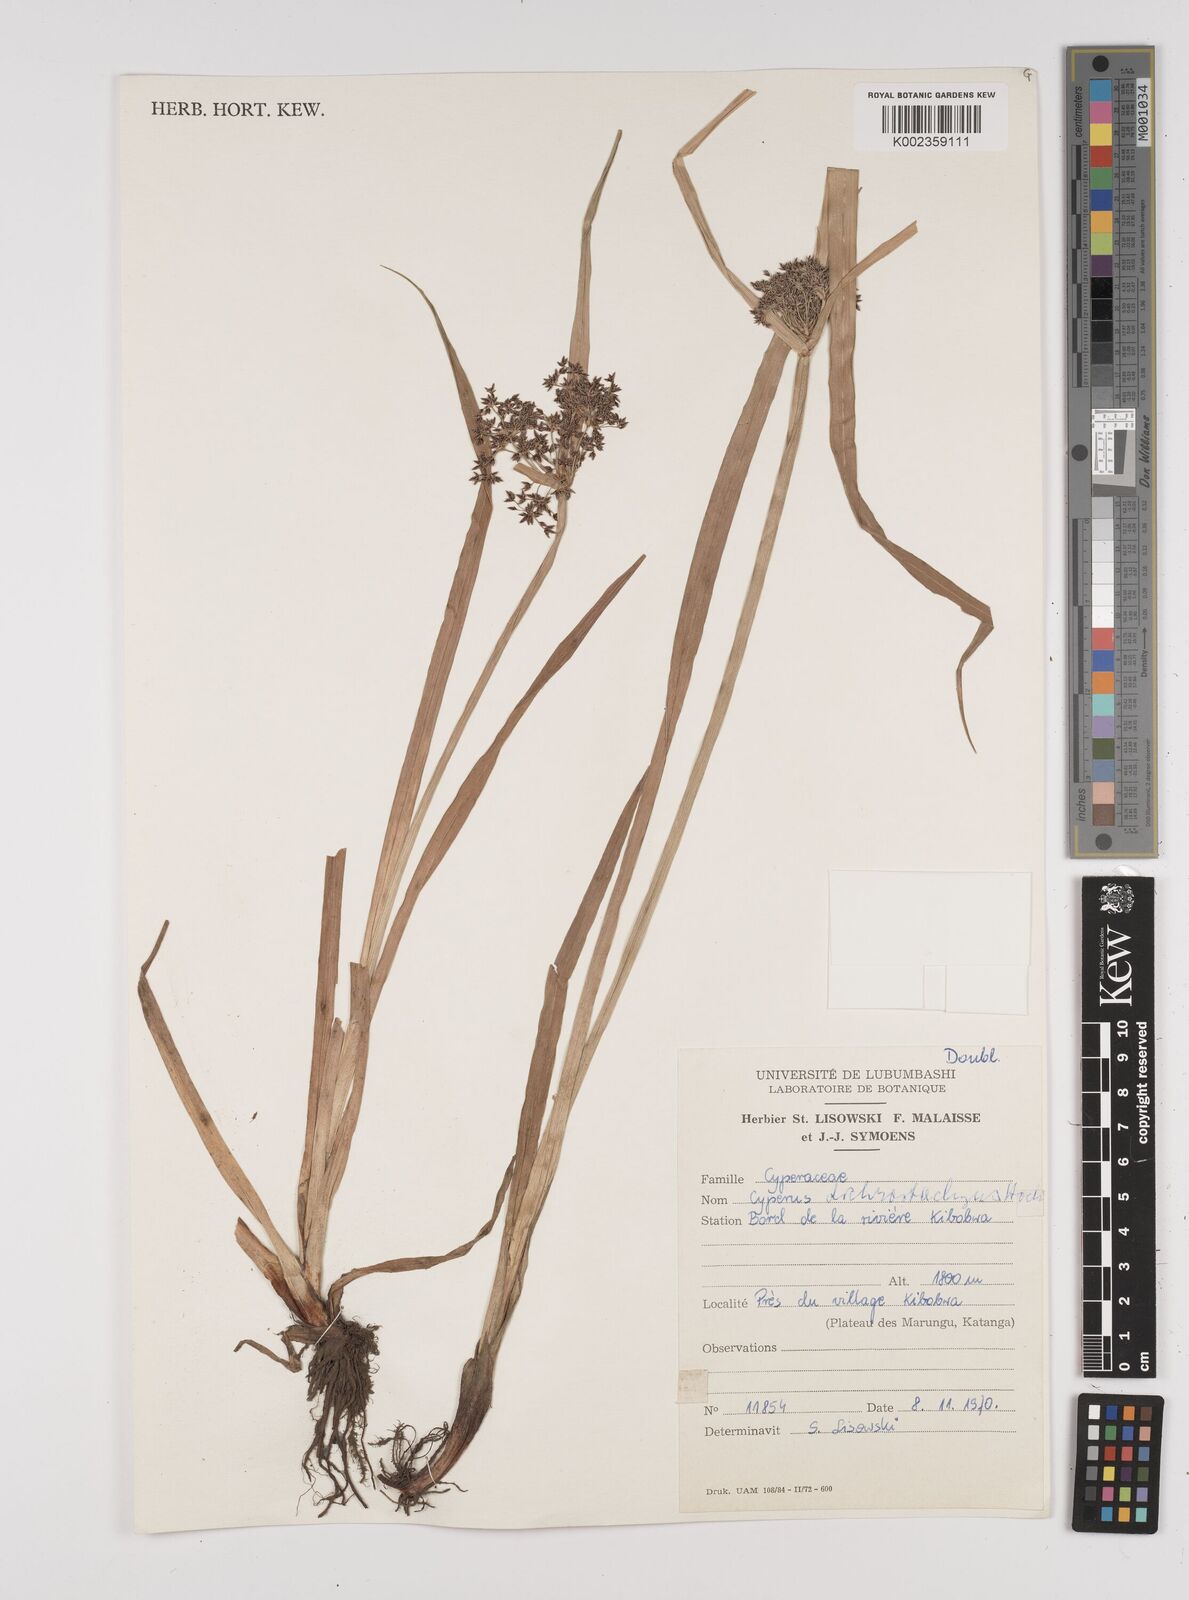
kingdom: Plantae
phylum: Tracheophyta
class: Liliopsida
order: Poales
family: Cyperaceae
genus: Cyperus
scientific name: Cyperus dichrostachyus
